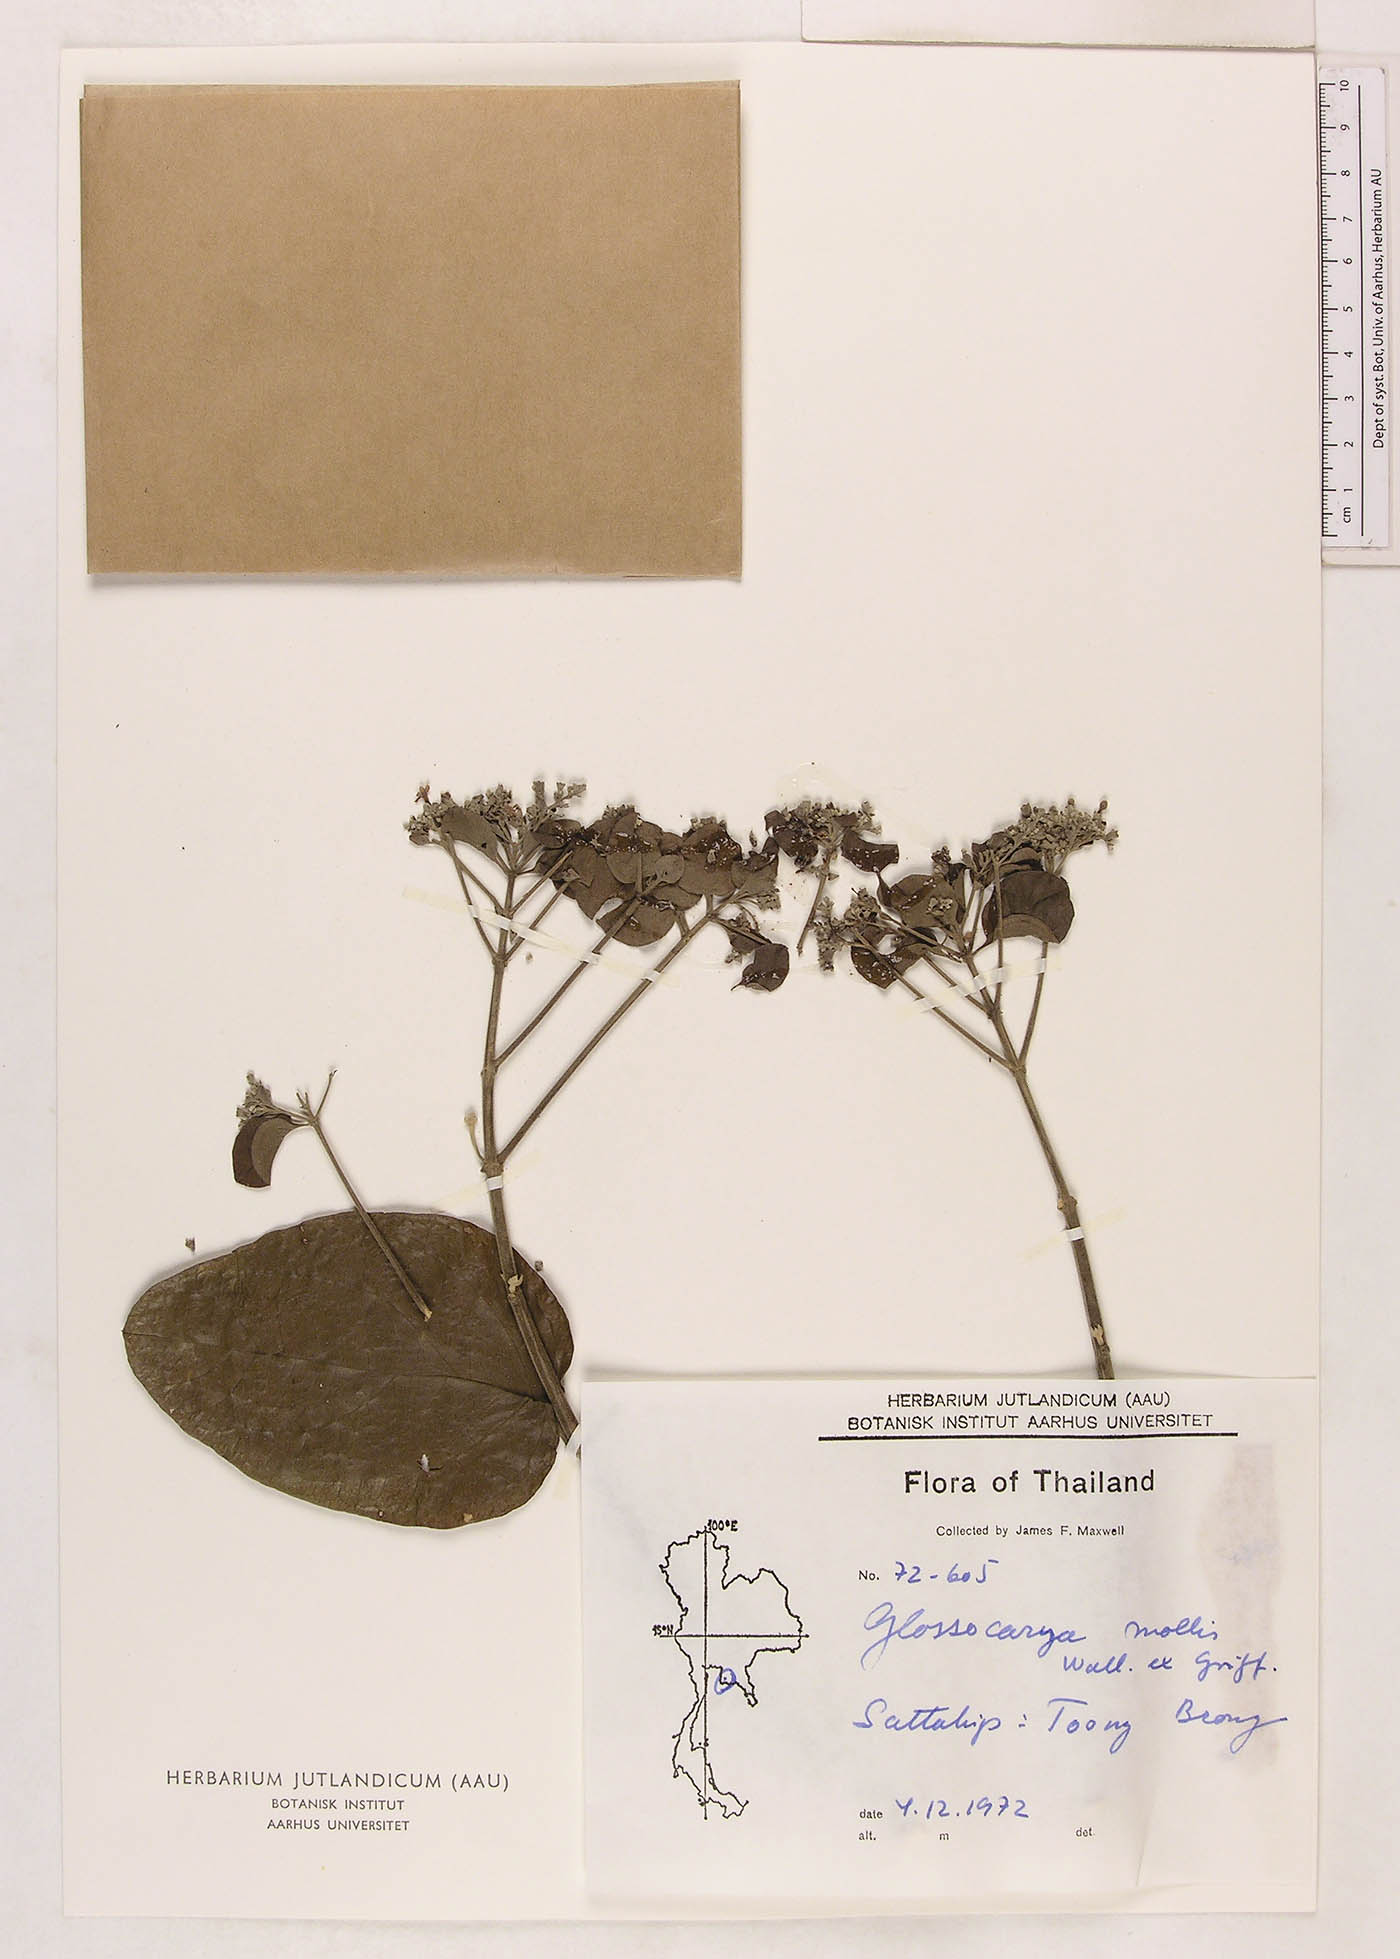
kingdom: Plantae
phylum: Tracheophyta
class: Magnoliopsida
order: Lamiales
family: Lamiaceae
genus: Glossocarya
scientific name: Glossocarya mollis
